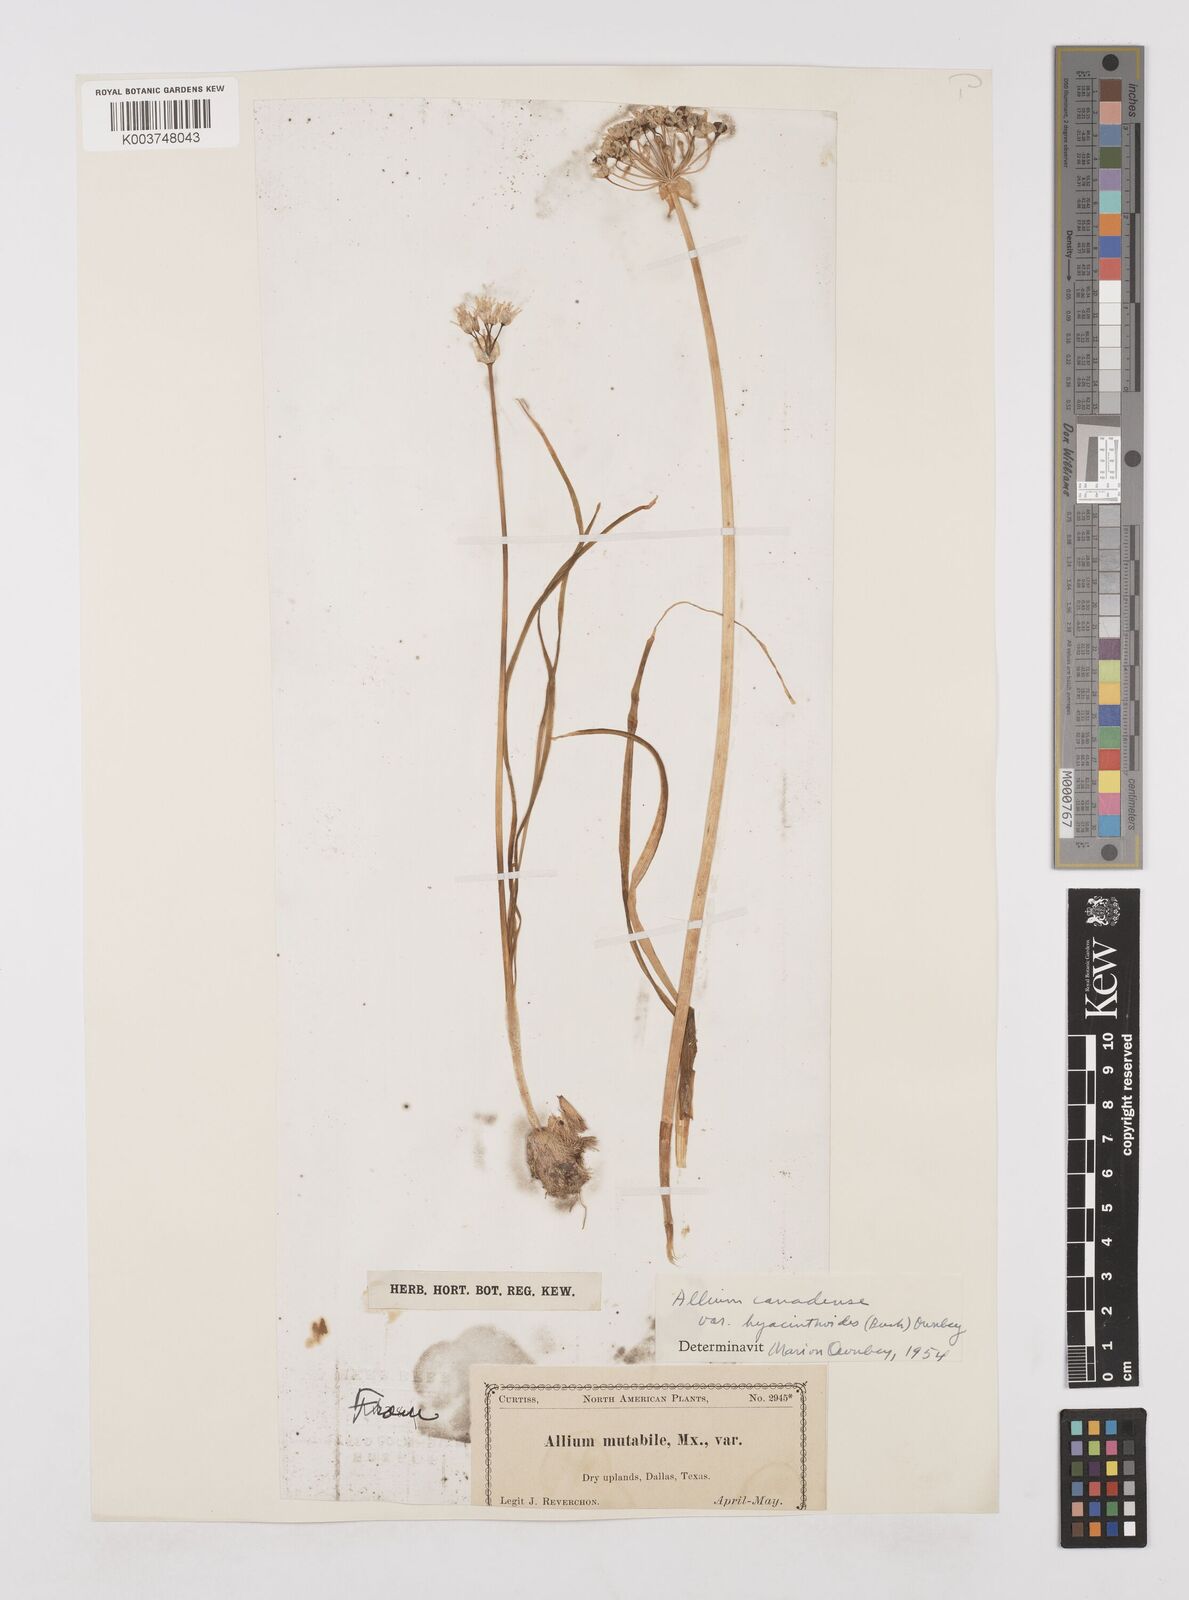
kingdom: Plantae
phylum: Tracheophyta
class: Liliopsida
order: Asparagales
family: Amaryllidaceae
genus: Allium
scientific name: Allium canadense
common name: Meadow garlic
